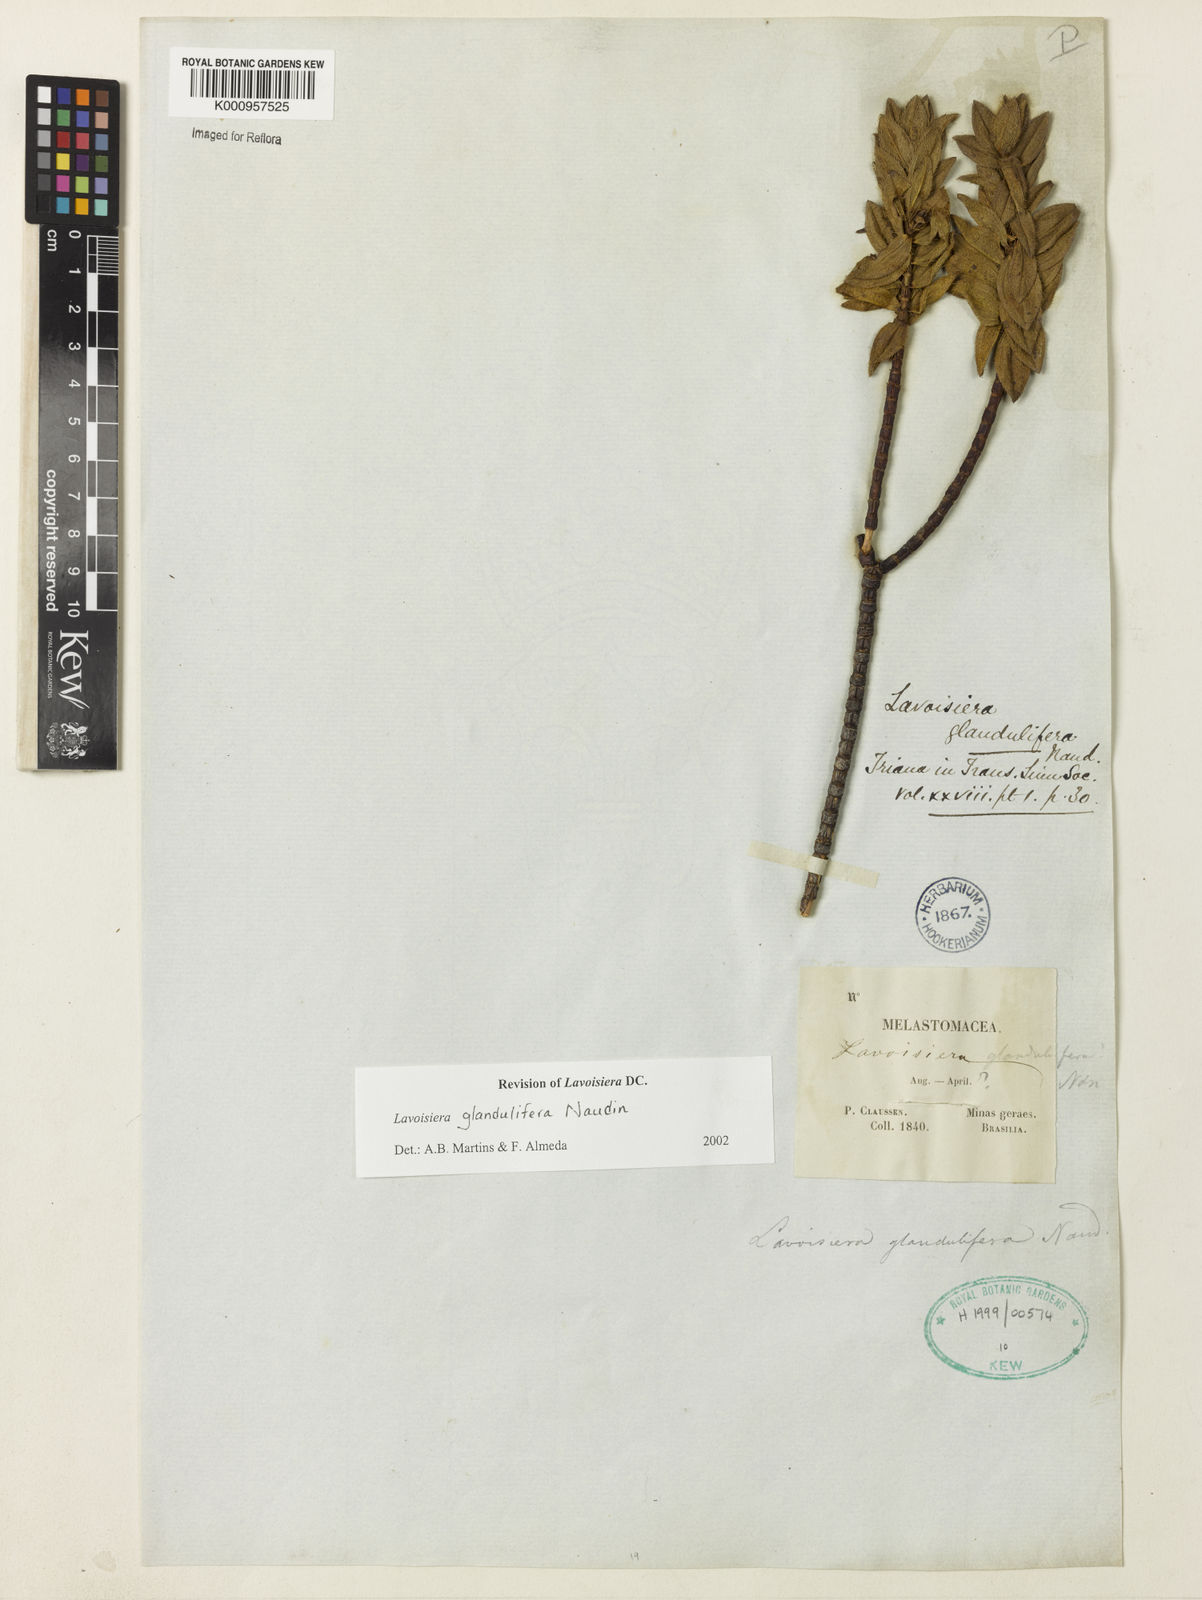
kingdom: Plantae
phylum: Tracheophyta
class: Magnoliopsida
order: Myrtales
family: Melastomataceae
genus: Microlicia
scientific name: Microlicia glandulifolia
